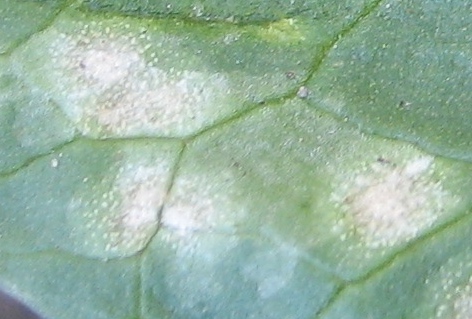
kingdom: Fungi
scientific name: Fungi
